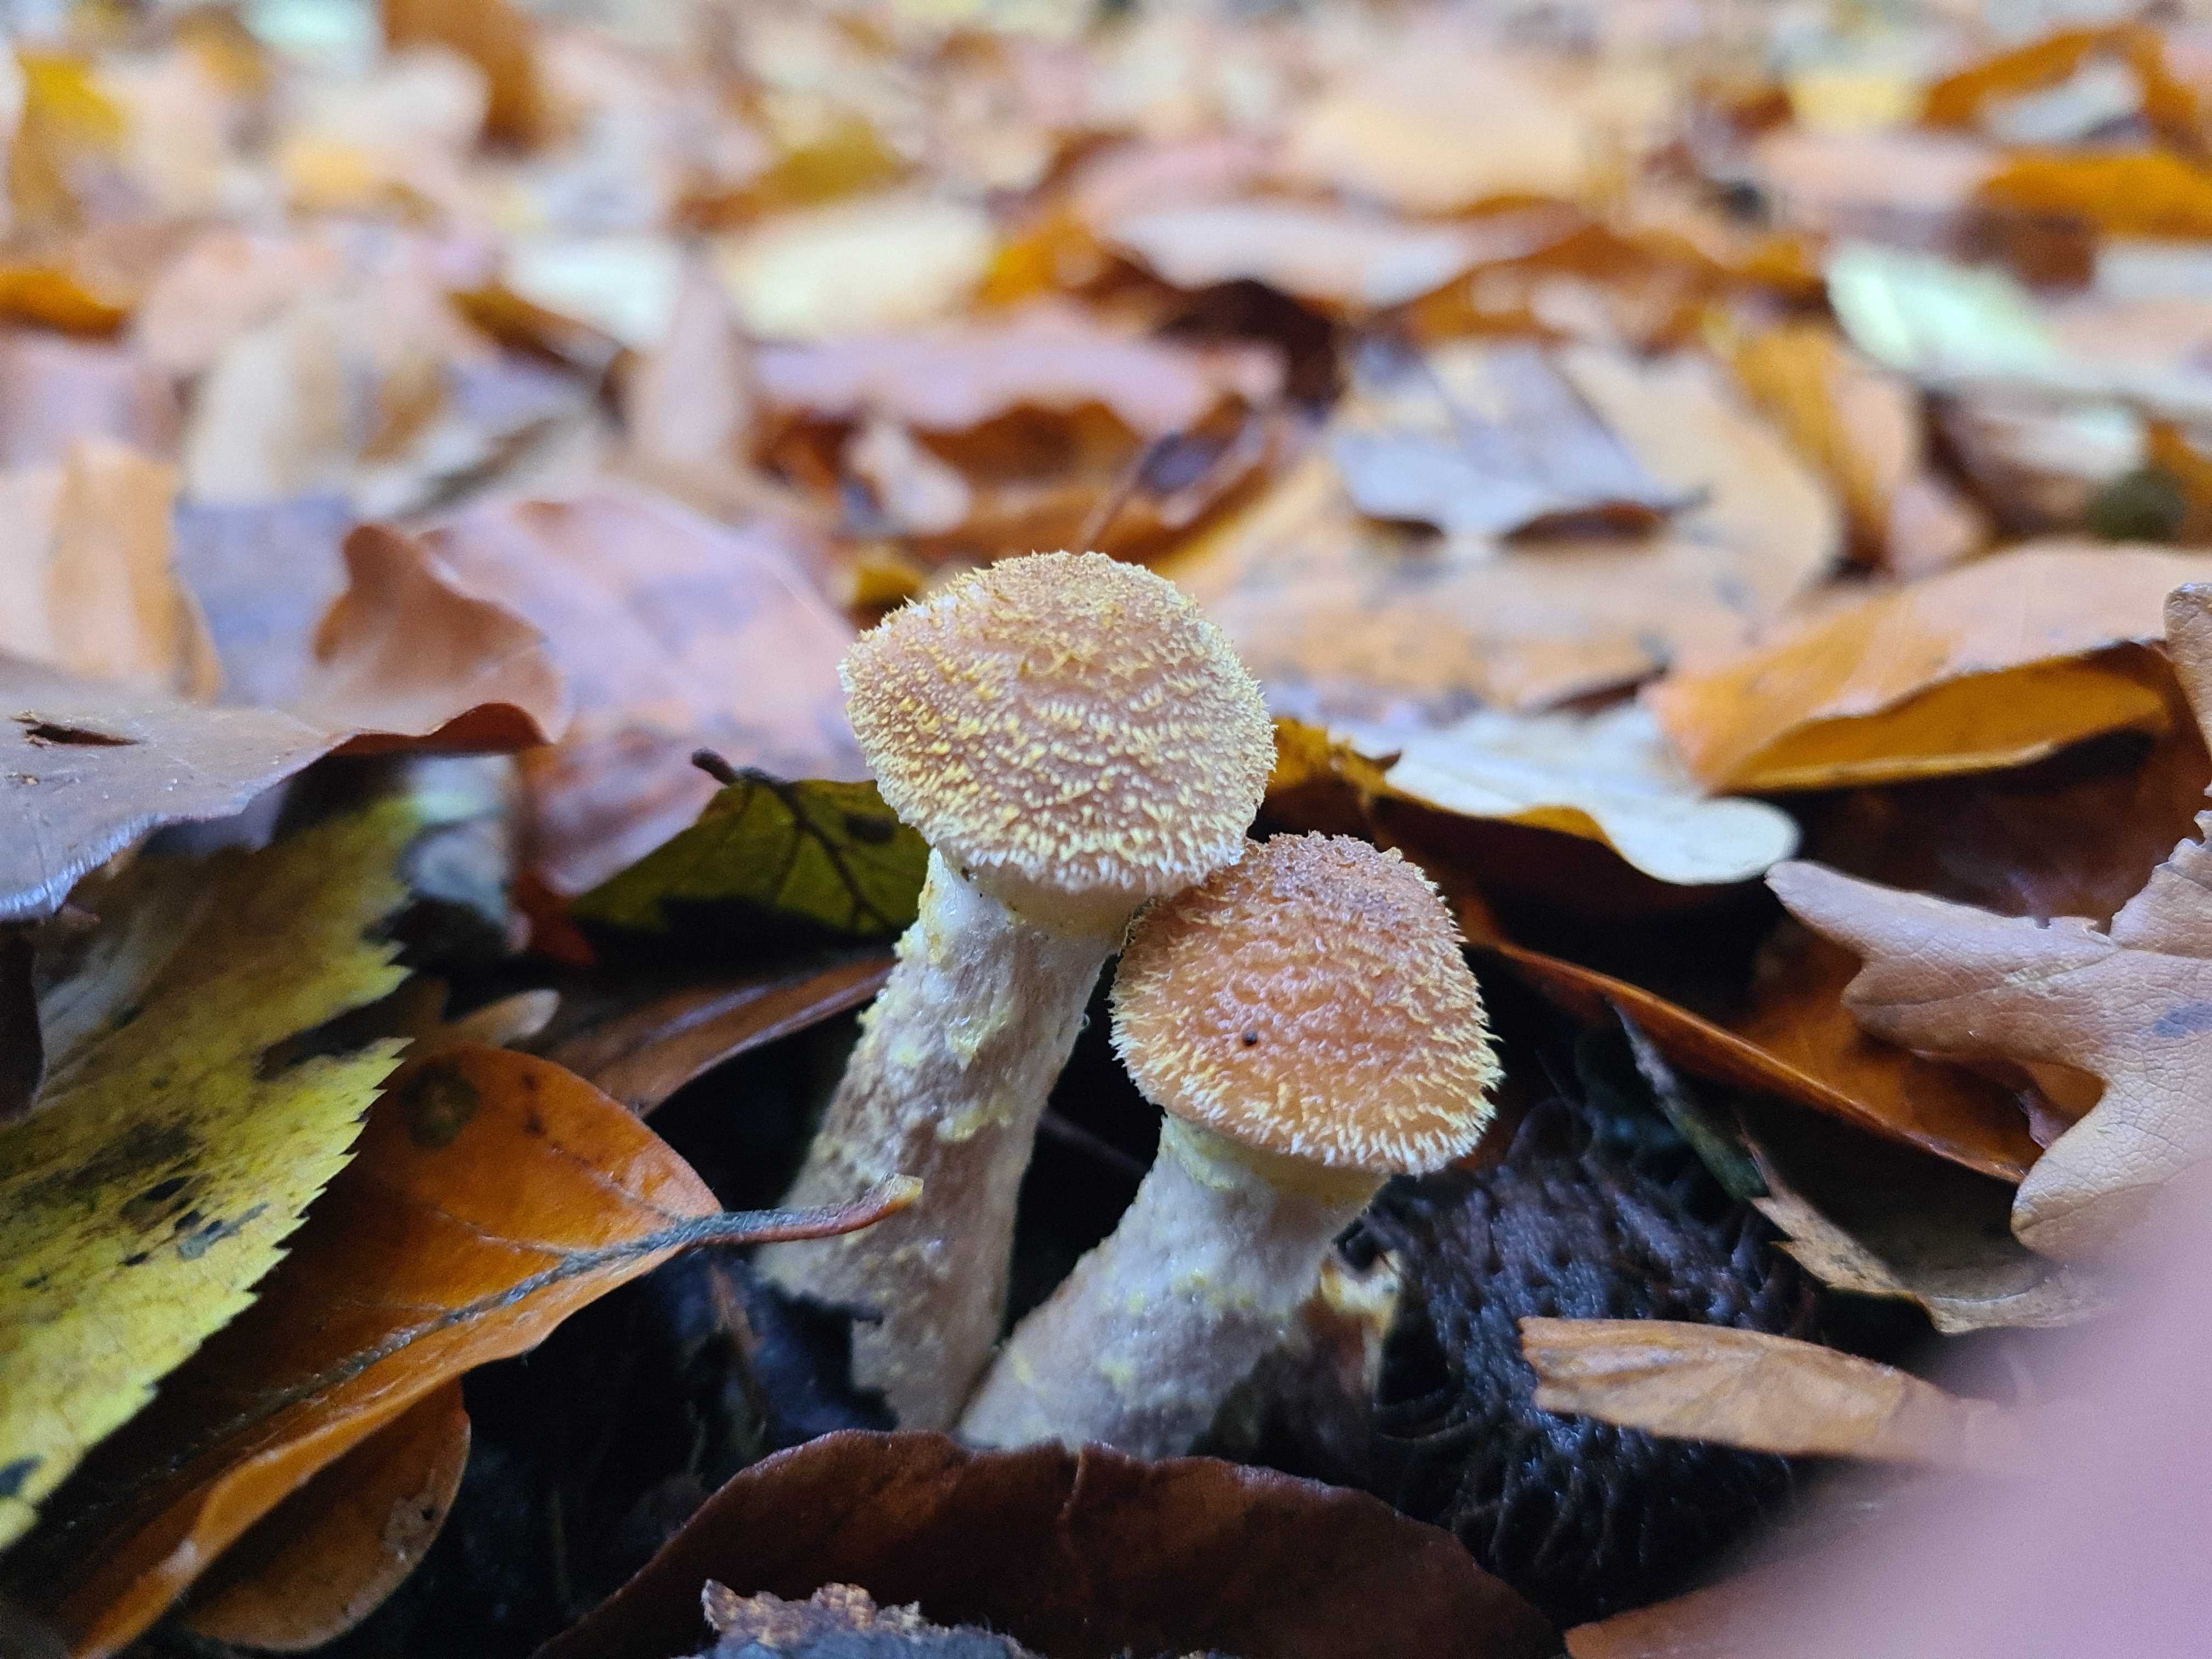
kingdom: Fungi
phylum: Basidiomycota
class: Agaricomycetes
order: Agaricales
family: Physalacriaceae
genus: Armillaria
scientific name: Armillaria lutea
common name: køllestokket honningsvamp
